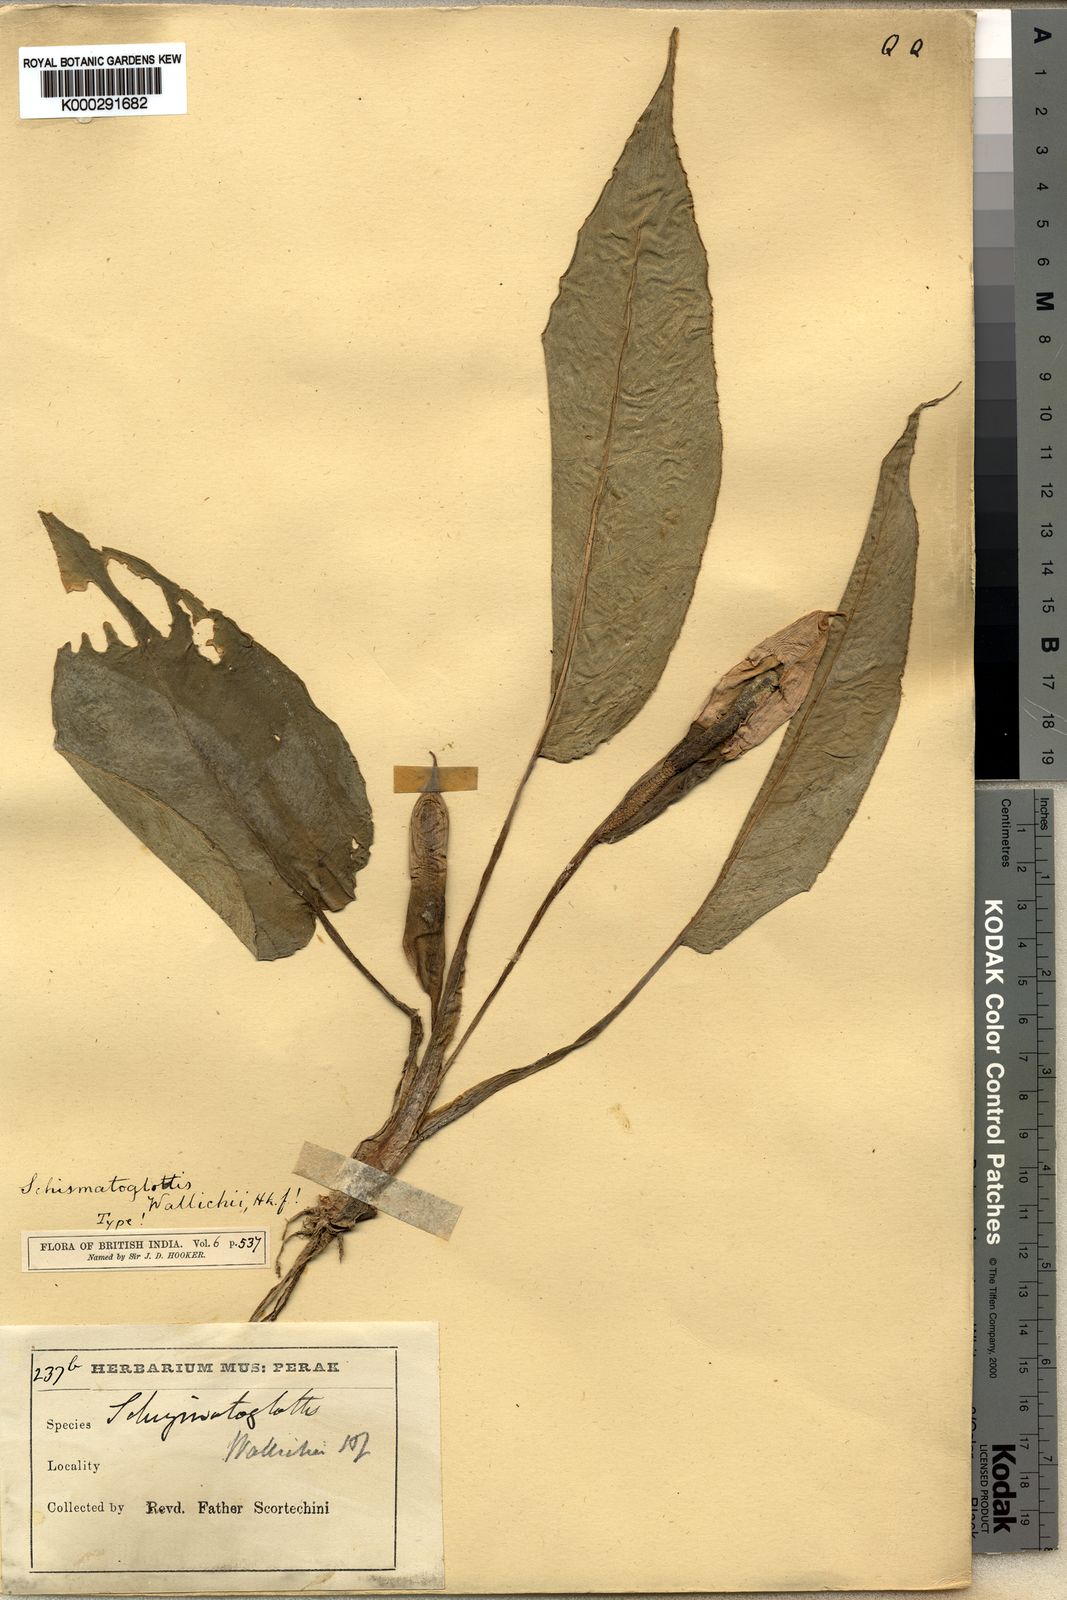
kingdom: Plantae
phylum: Tracheophyta
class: Liliopsida
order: Alismatales
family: Araceae
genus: Schismatoglottis
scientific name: Schismatoglottis wallichii
